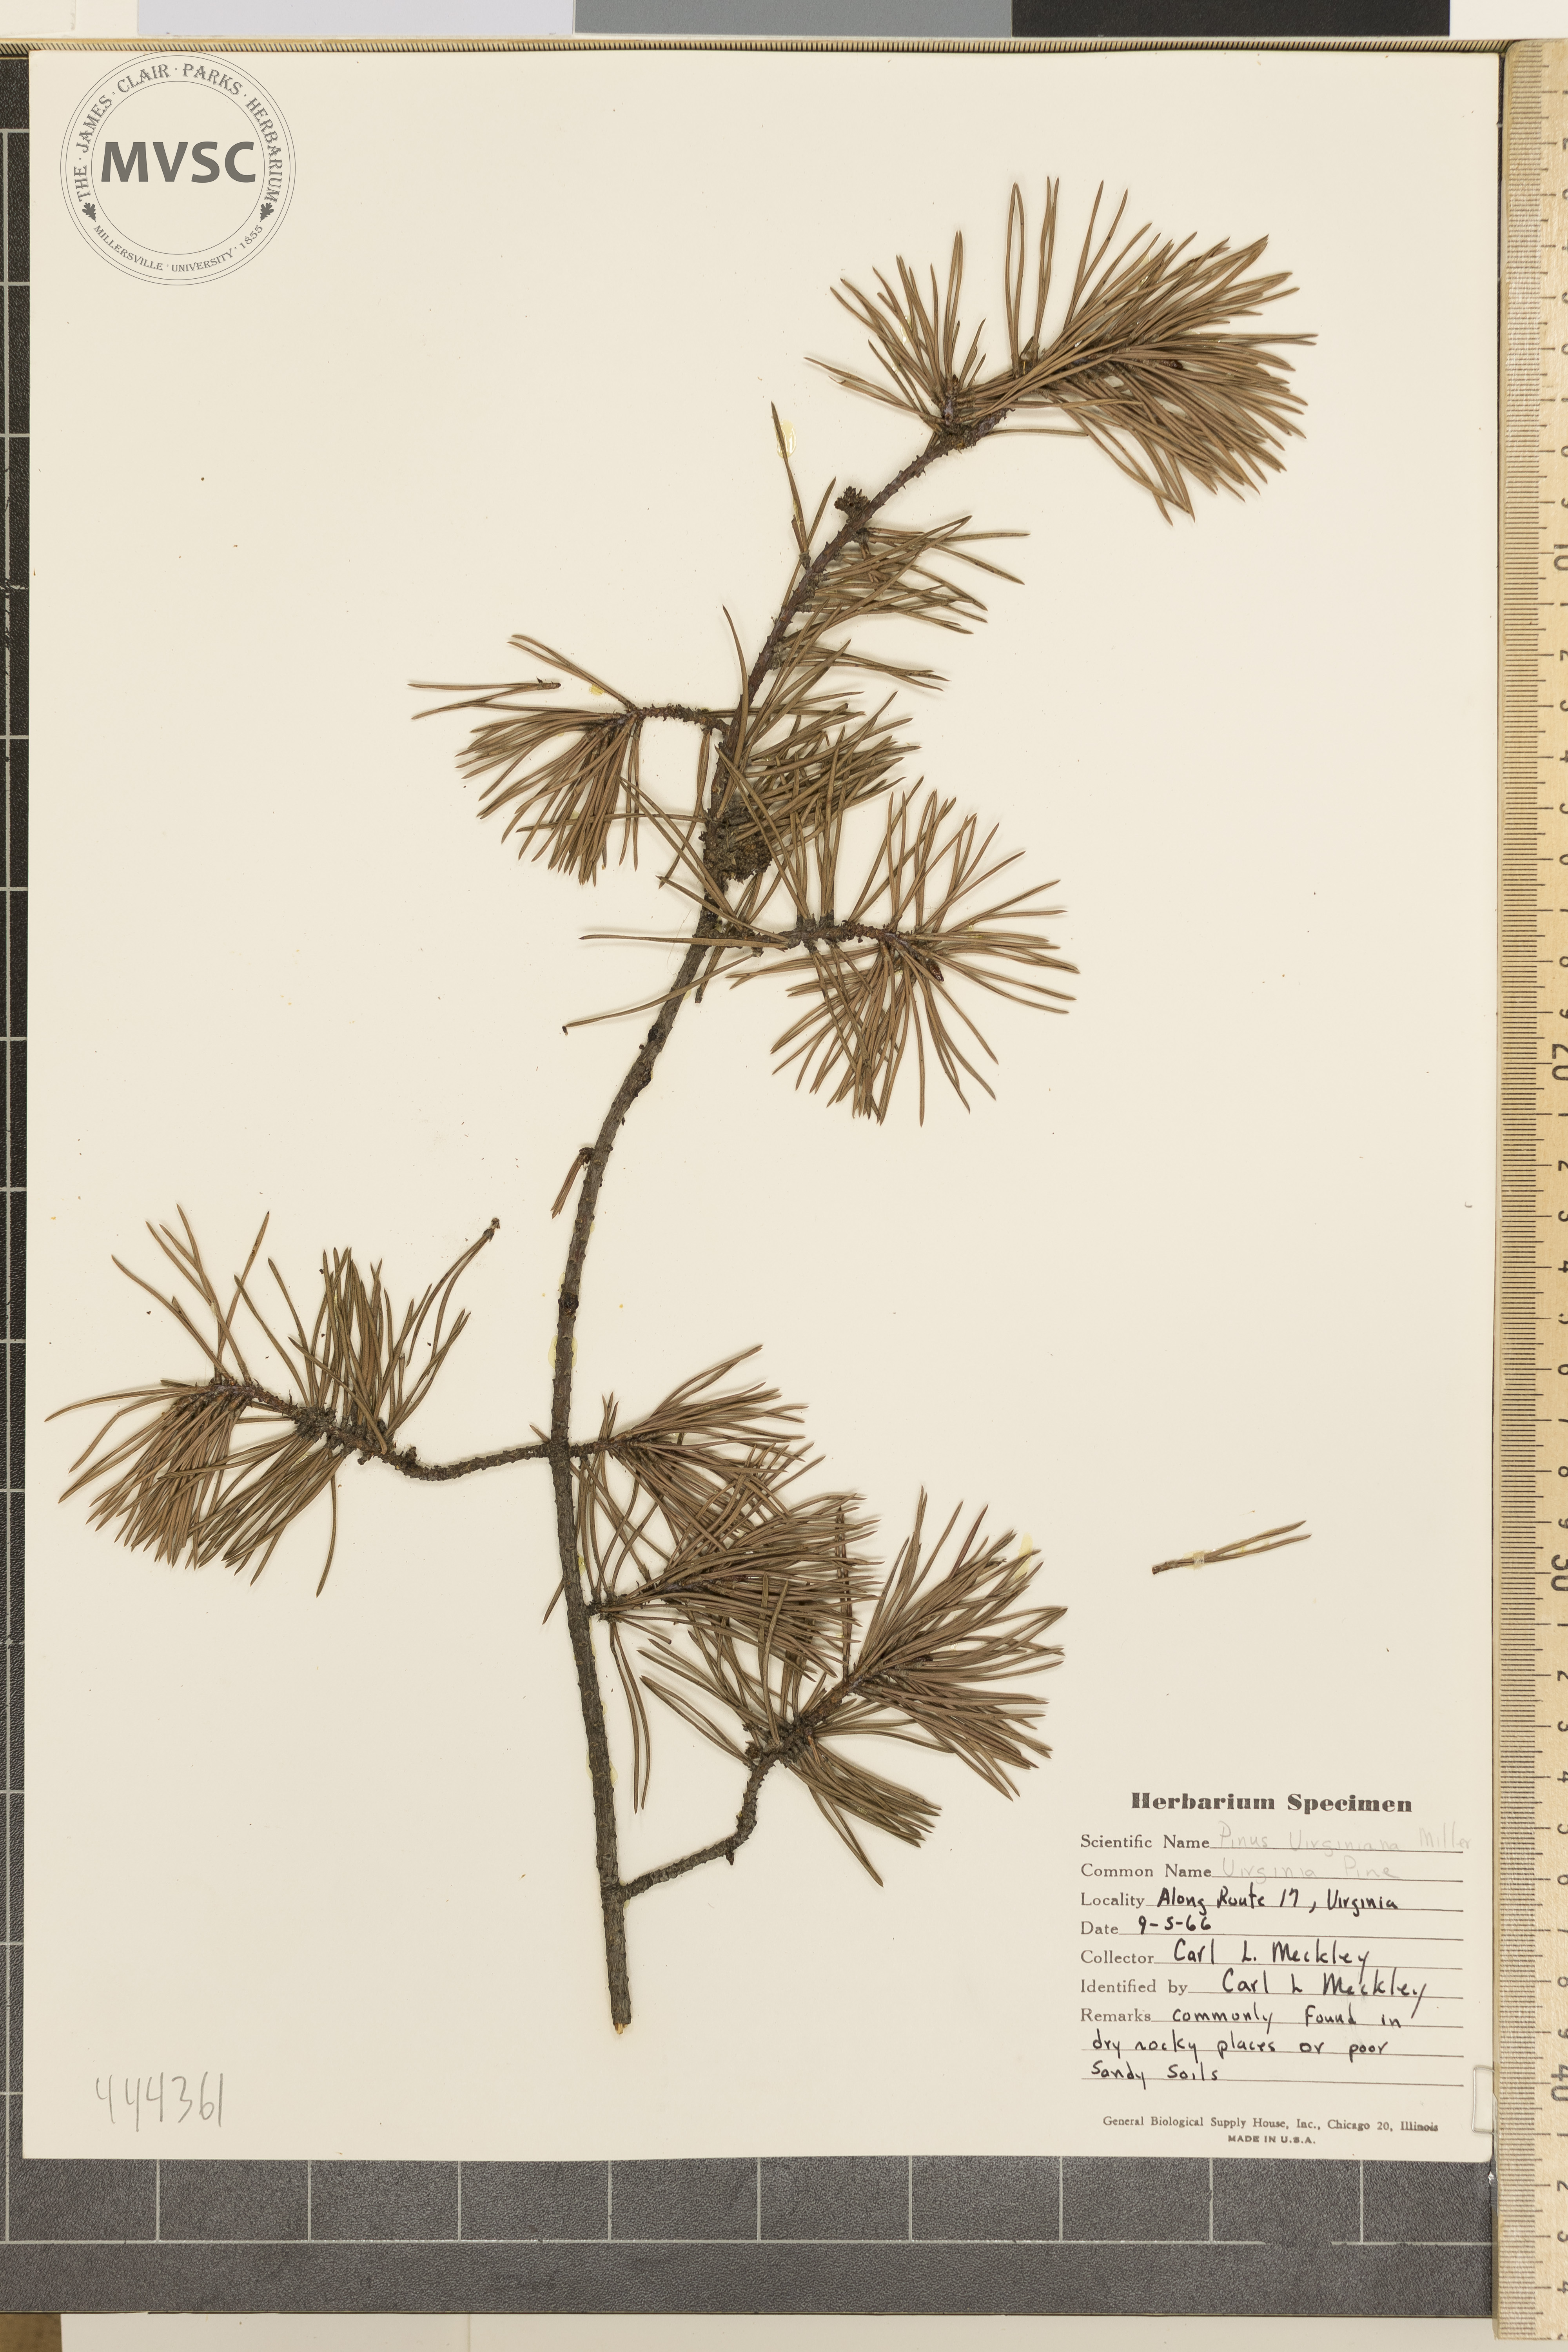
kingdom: Plantae
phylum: Tracheophyta
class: Pinopsida
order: Pinales
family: Pinaceae
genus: Pinus
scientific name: Pinus virginiana
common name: Scrub pine
